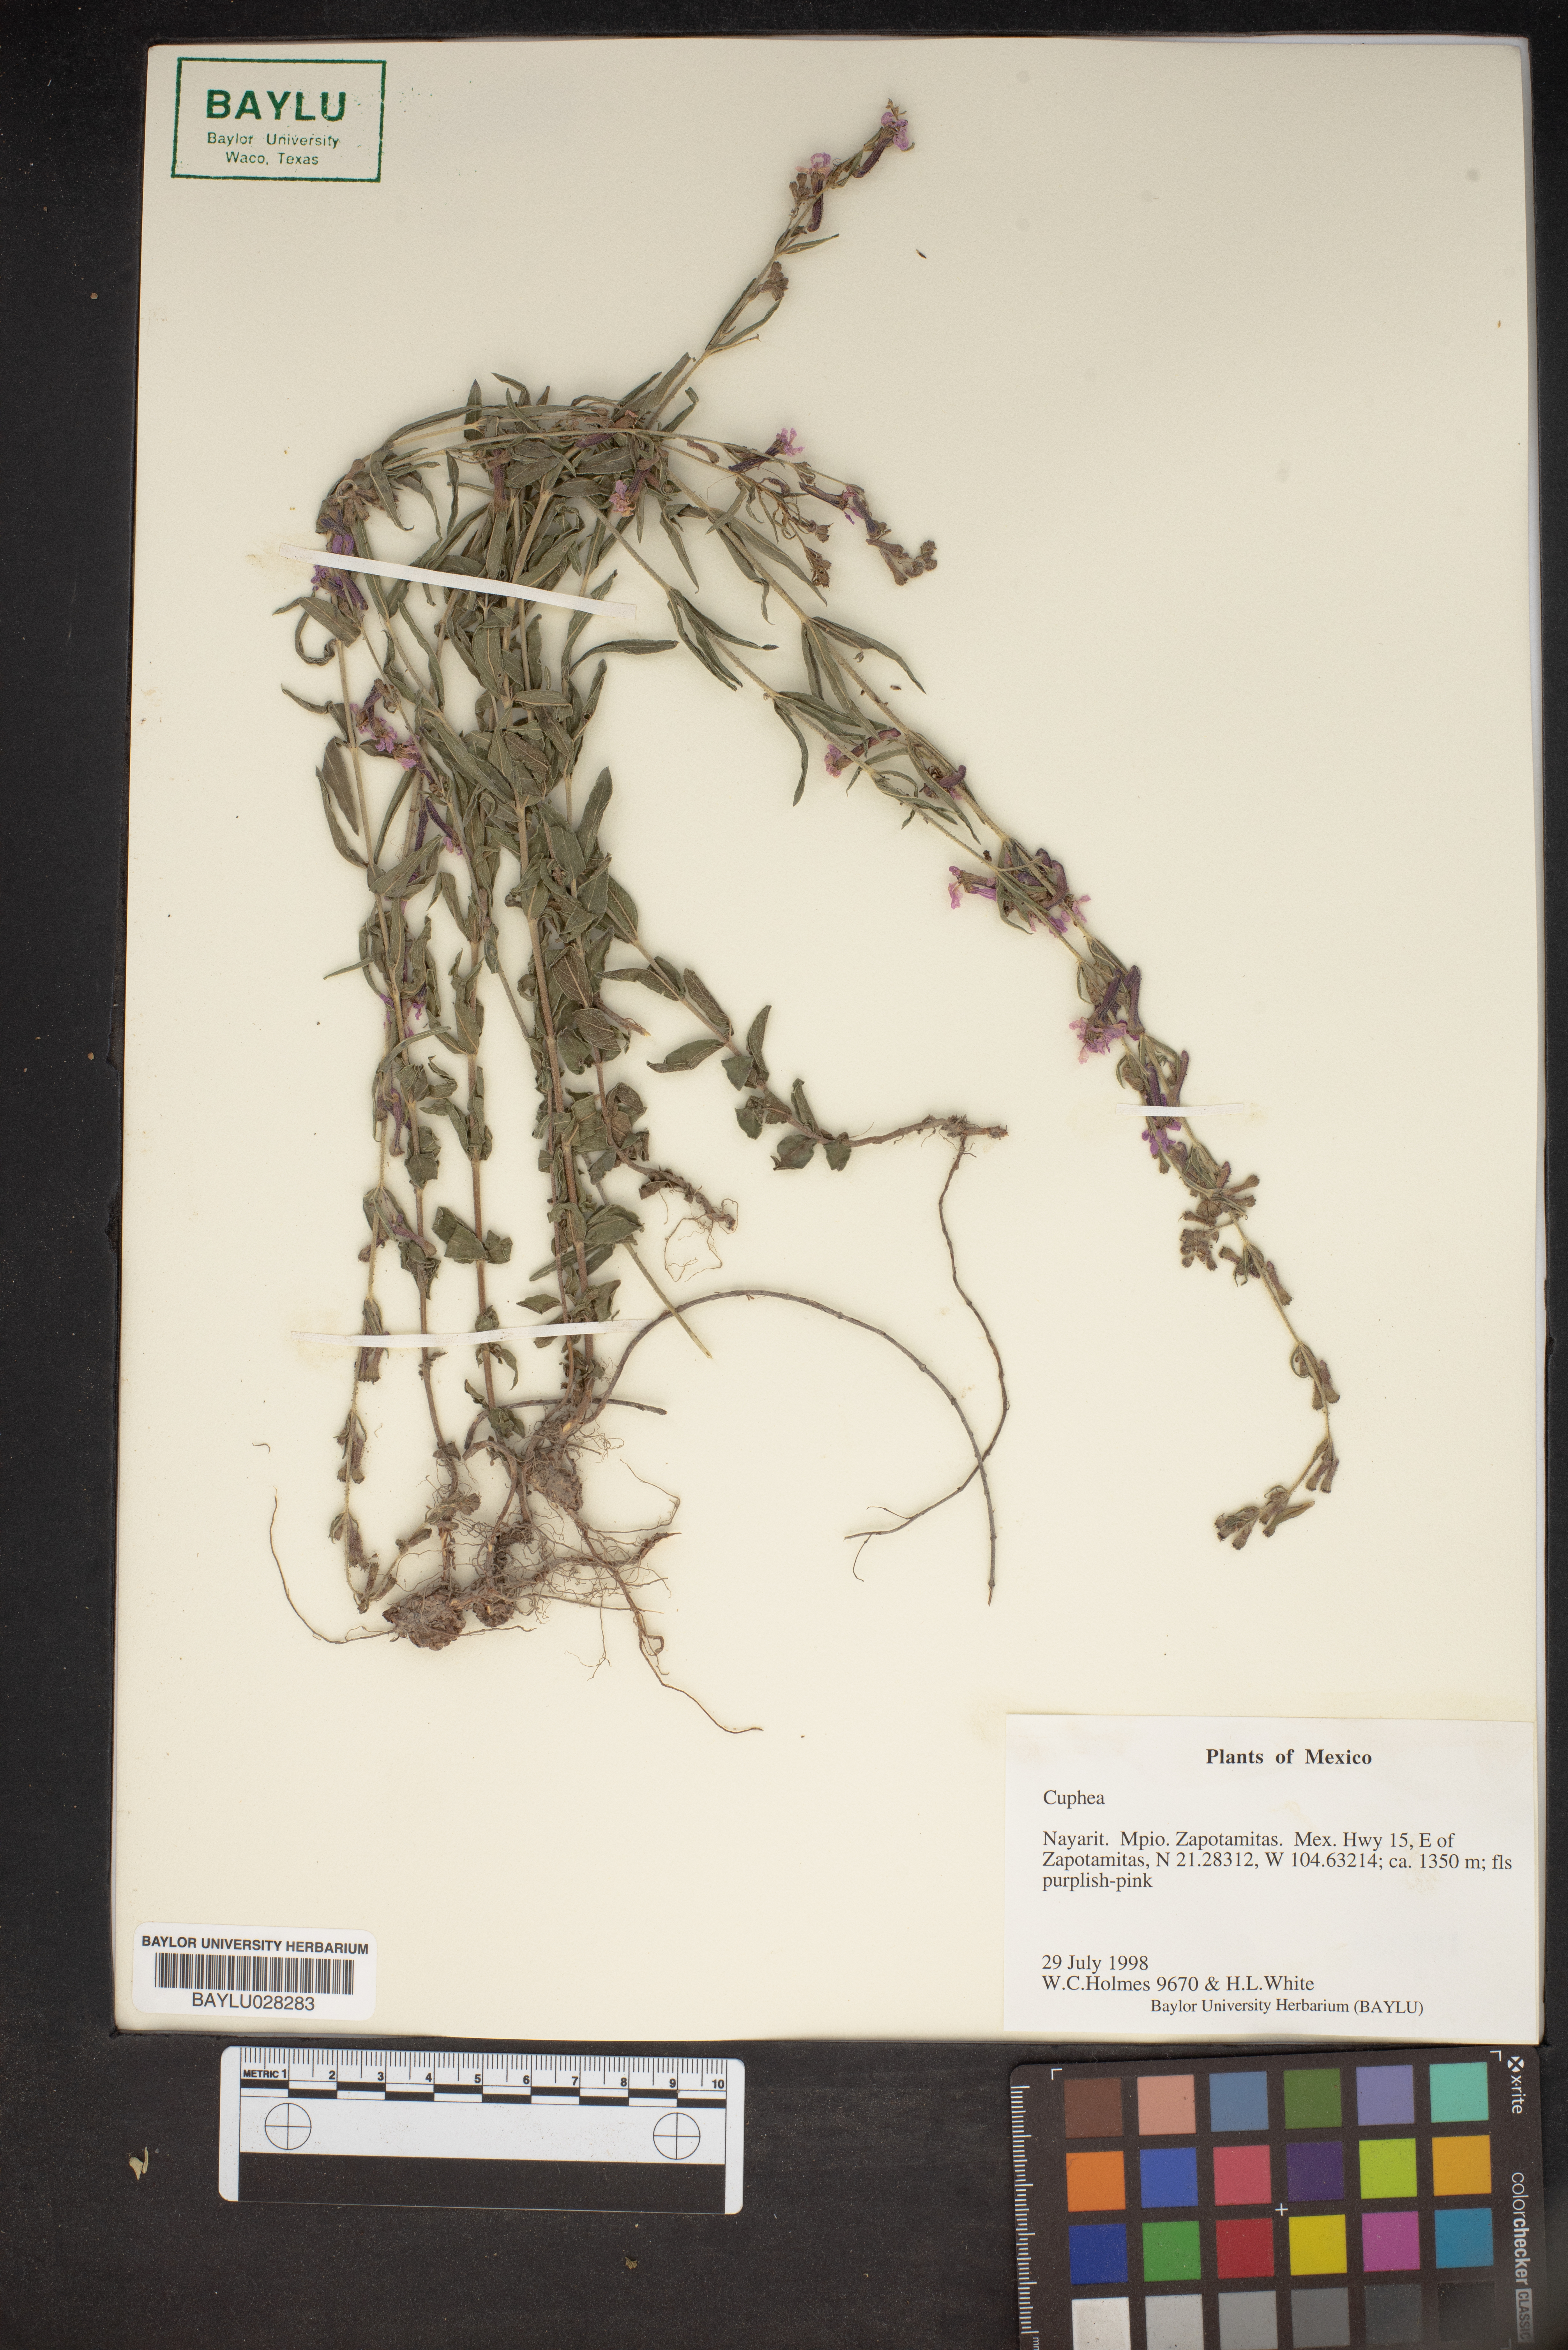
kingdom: Plantae
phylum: Tracheophyta
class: Magnoliopsida
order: Myrtales
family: Lythraceae
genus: Cuphea
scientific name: Cuphea
